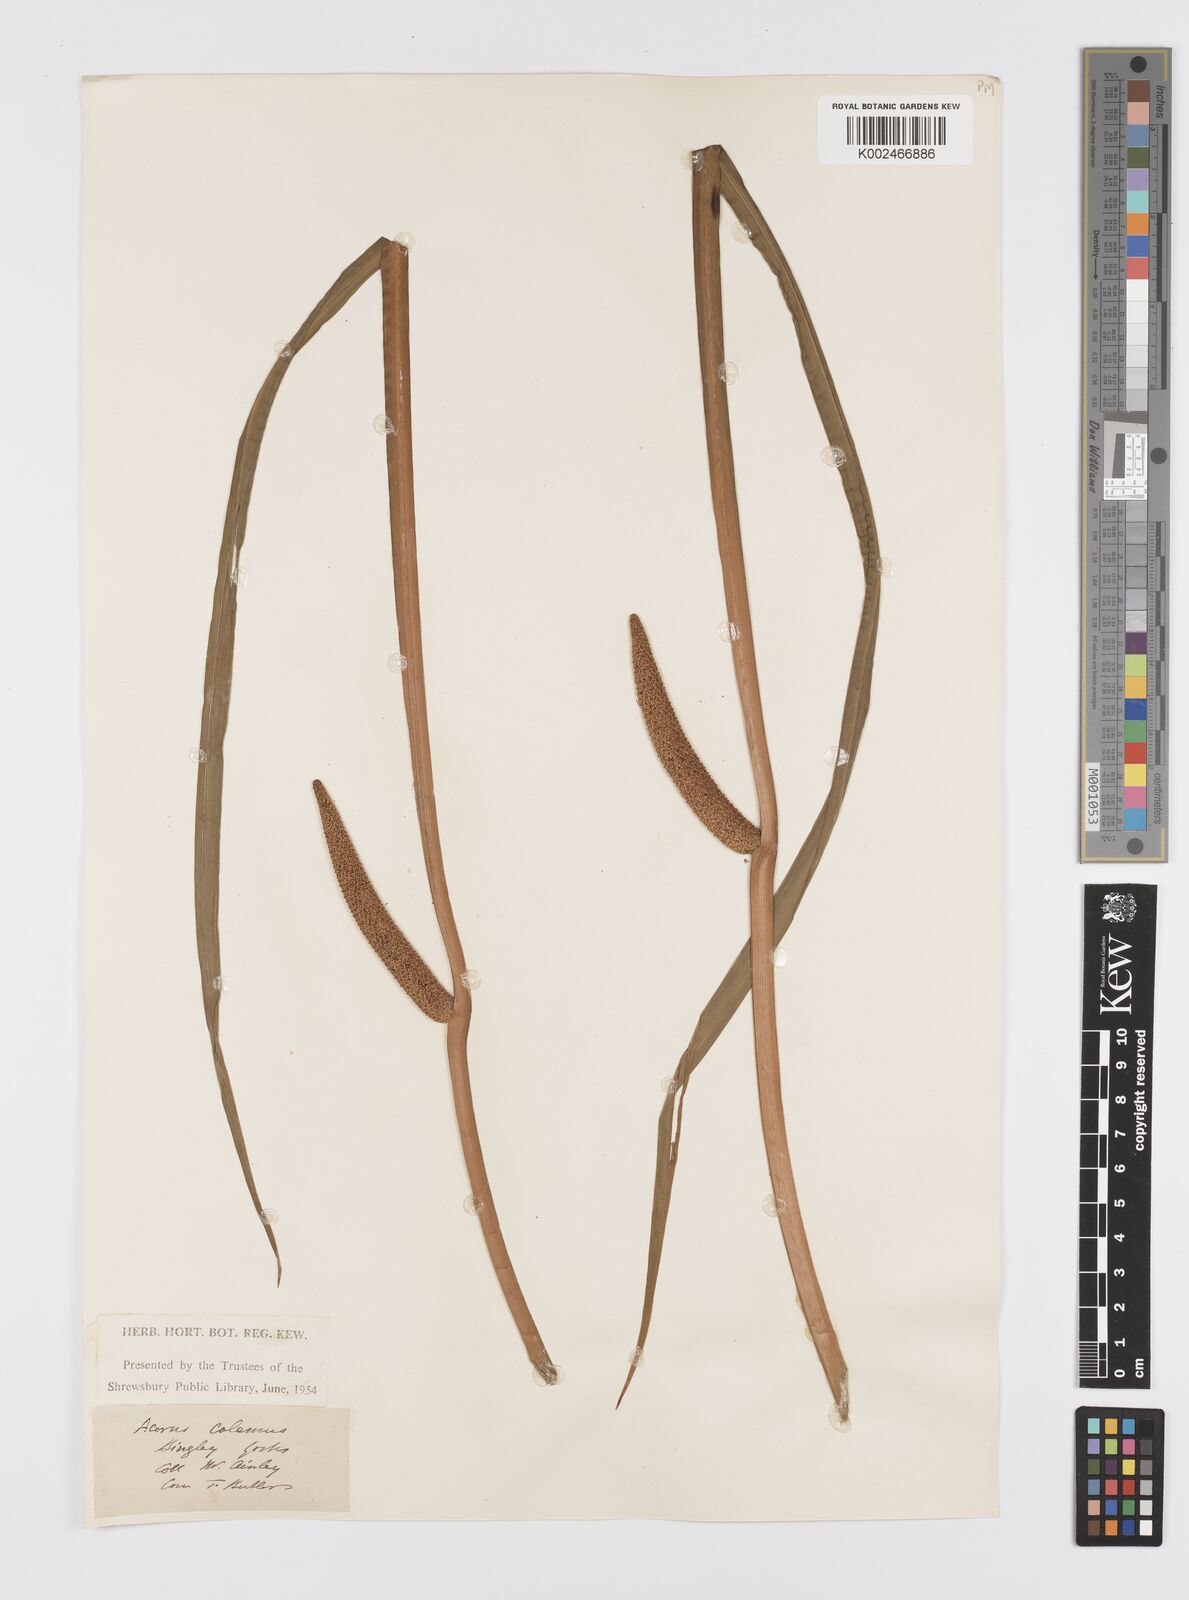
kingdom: Plantae
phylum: Tracheophyta
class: Liliopsida
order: Acorales
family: Acoraceae
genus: Acorus
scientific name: Acorus calamus
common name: Sweet-flag
